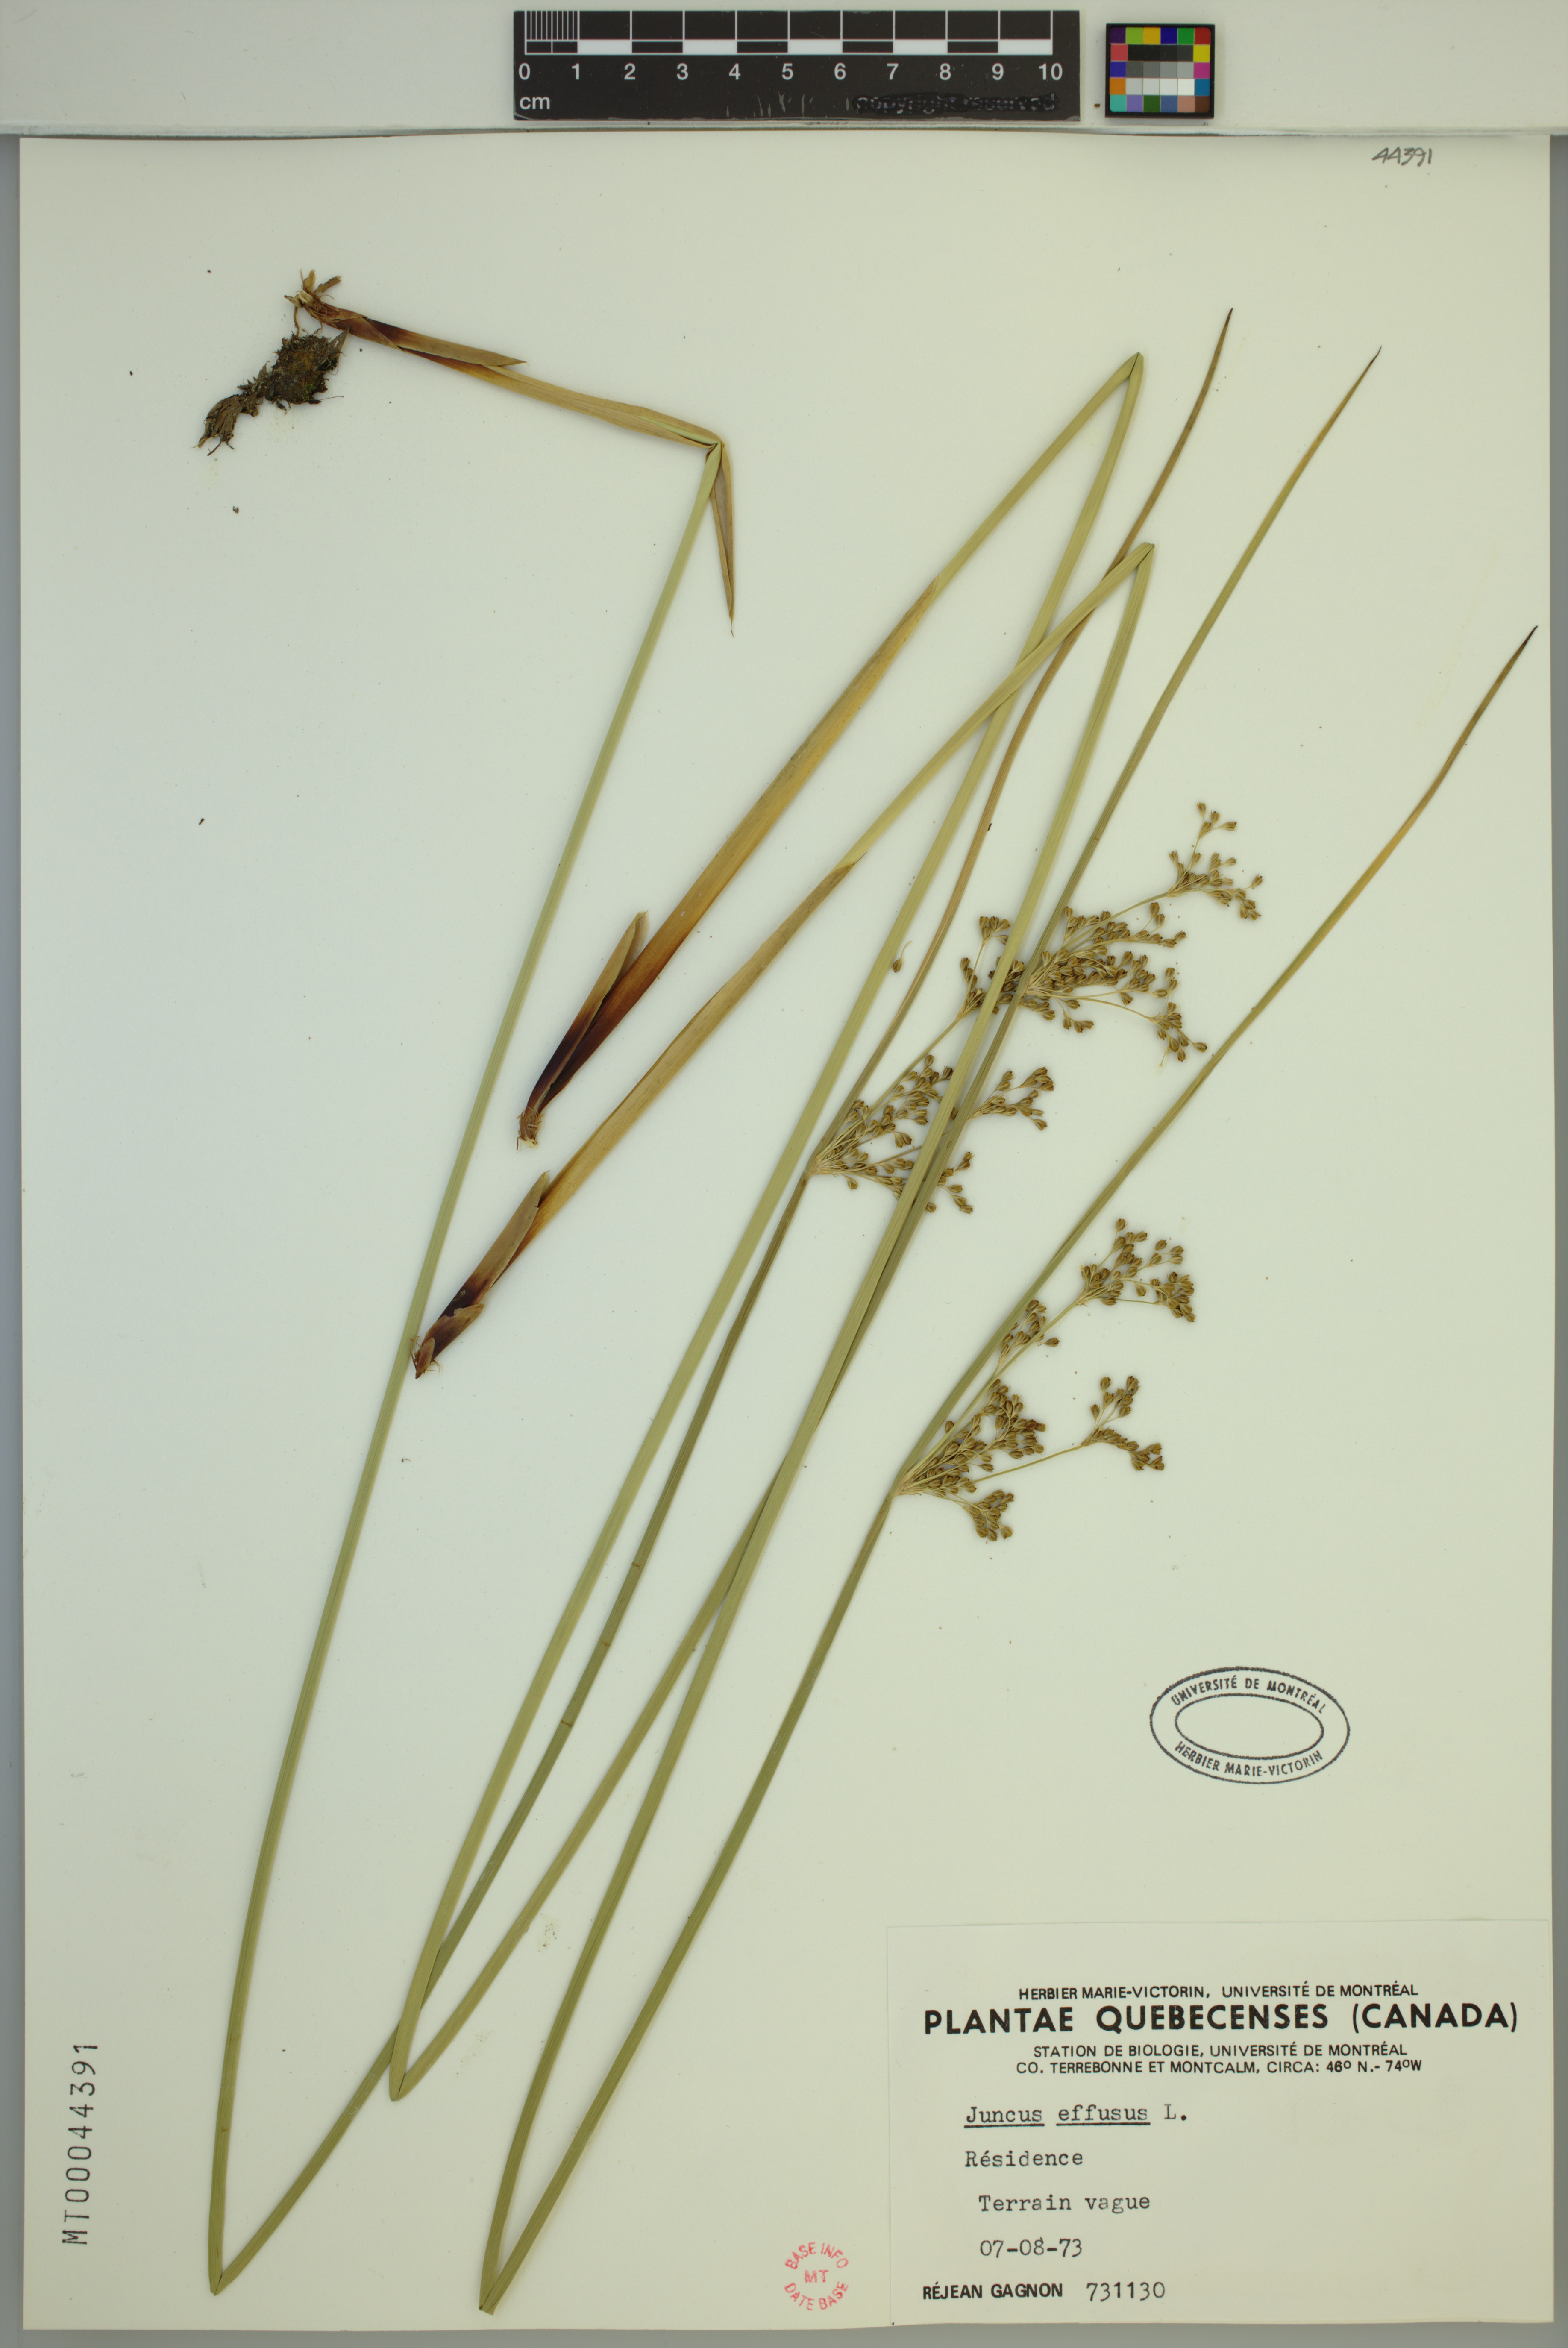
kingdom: Plantae
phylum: Tracheophyta
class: Liliopsida
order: Poales
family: Juncaceae
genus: Juncus
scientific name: Juncus effusus
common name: Soft rush
